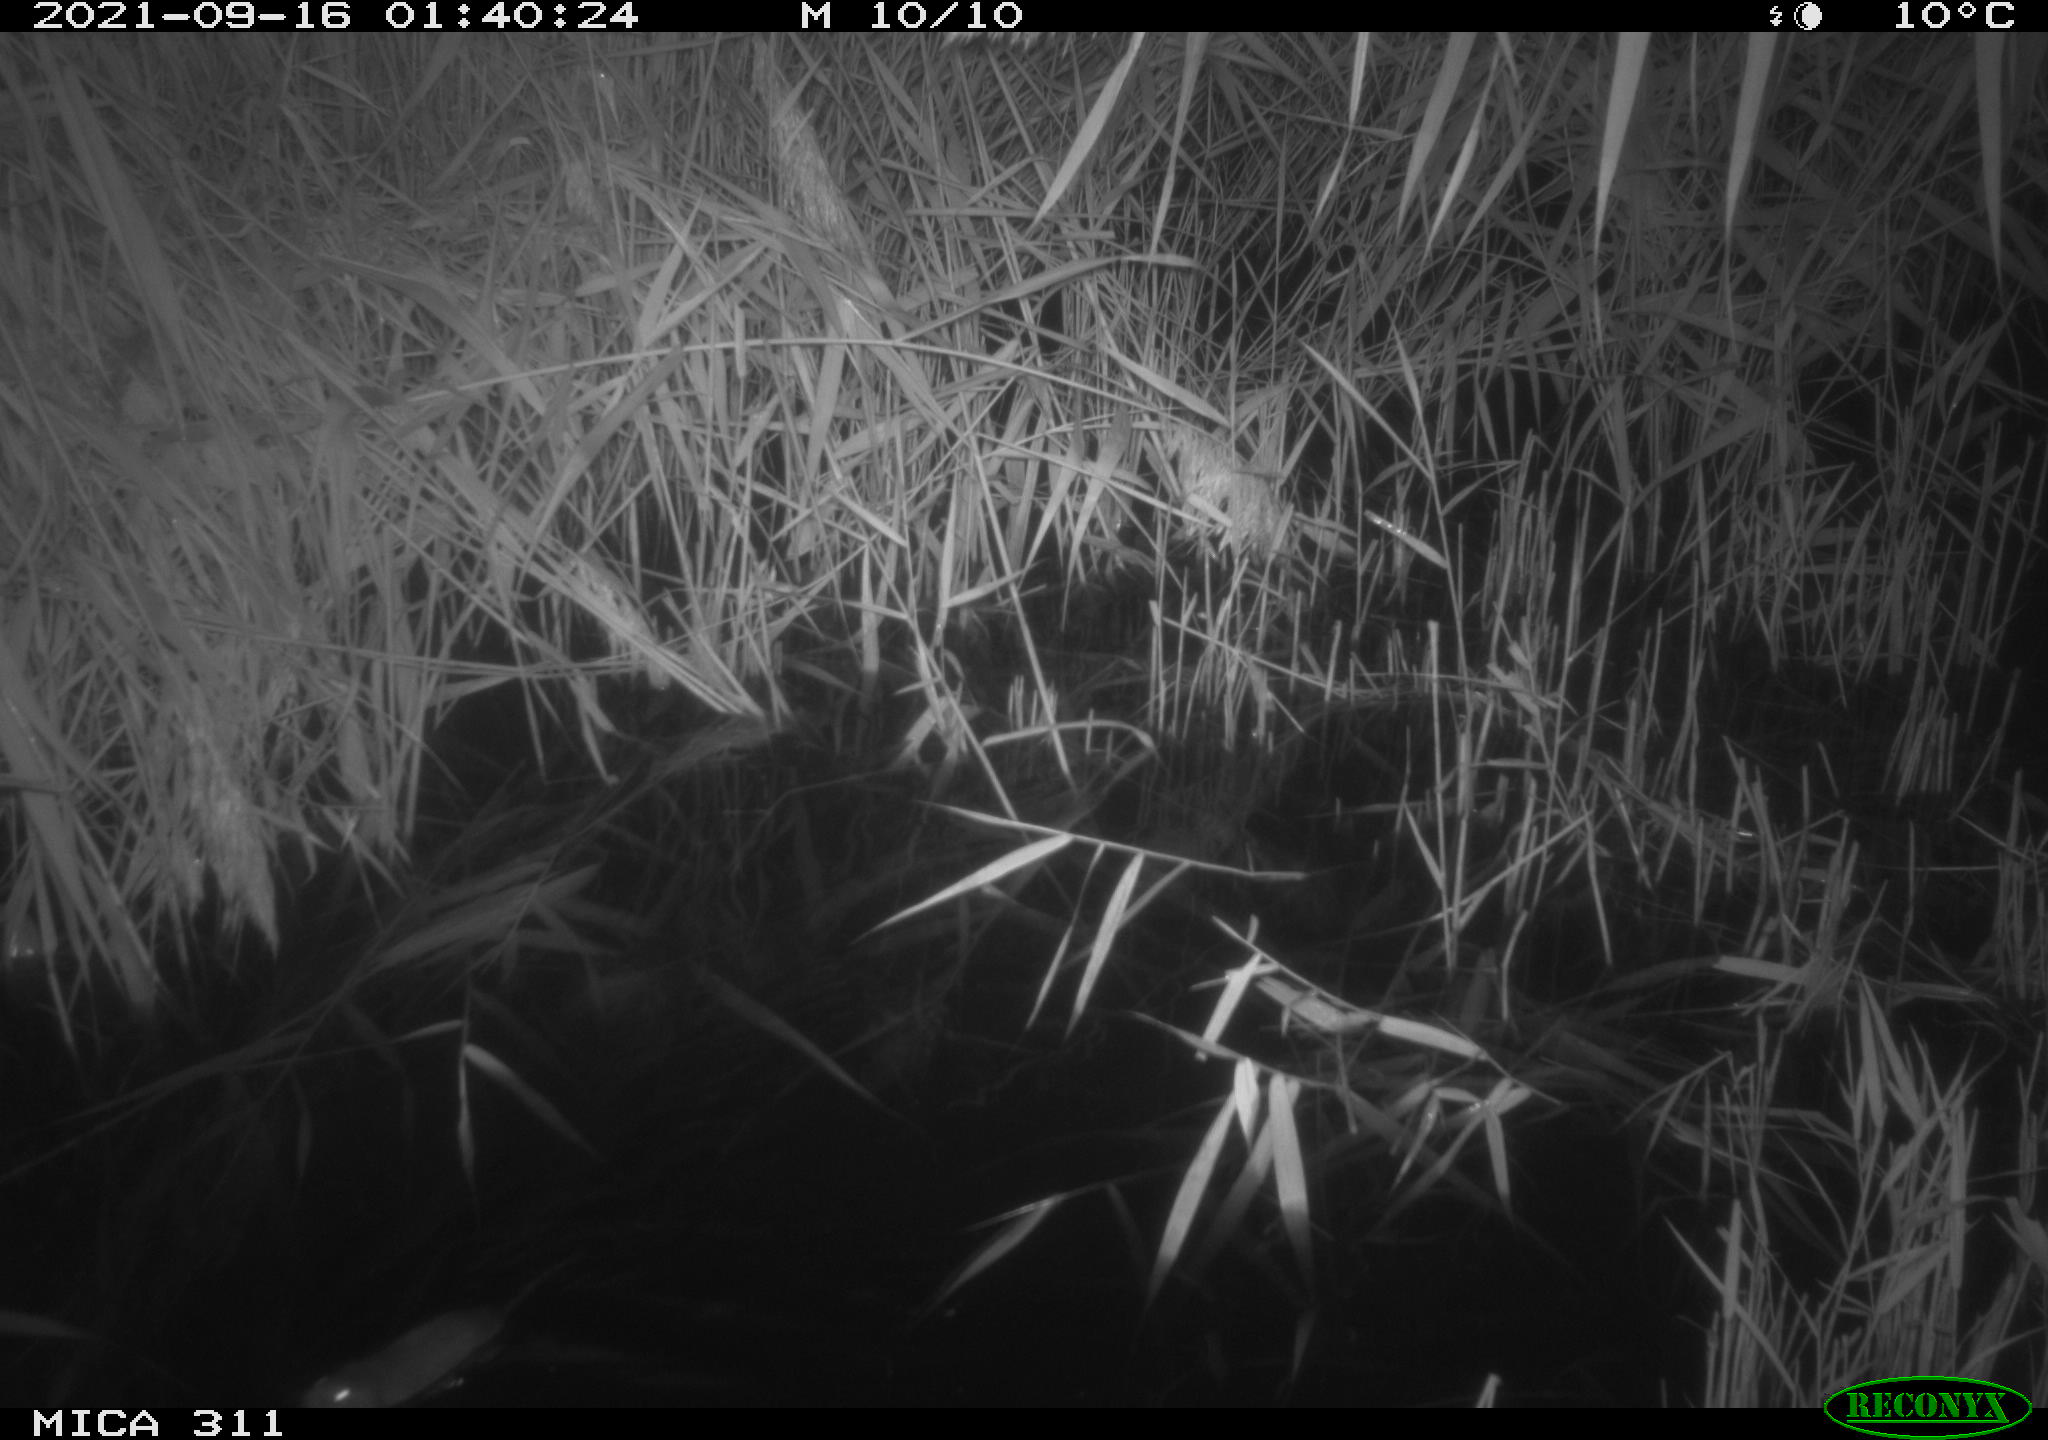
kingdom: Animalia
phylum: Chordata
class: Mammalia
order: Rodentia
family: Muridae
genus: Rattus
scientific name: Rattus norvegicus
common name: Brown rat
